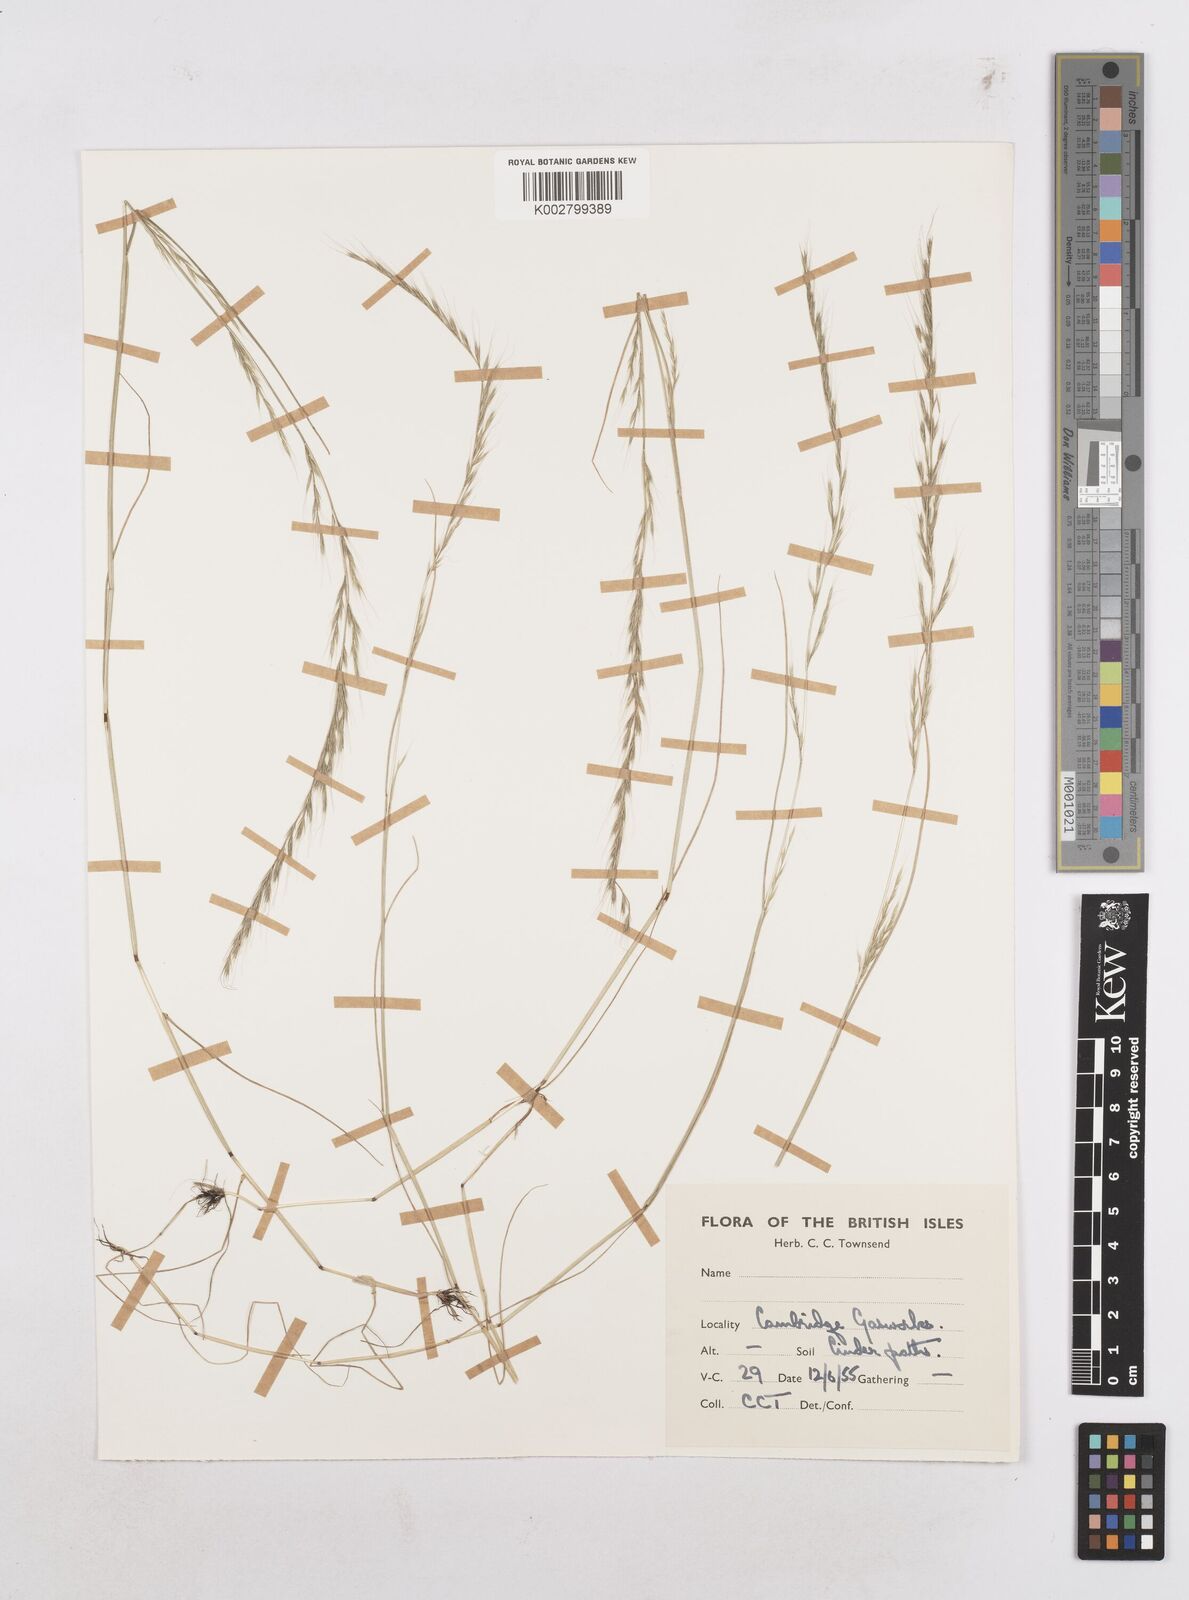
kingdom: Plantae
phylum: Tracheophyta
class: Liliopsida
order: Poales
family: Poaceae
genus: Festuca
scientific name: Festuca myuros
